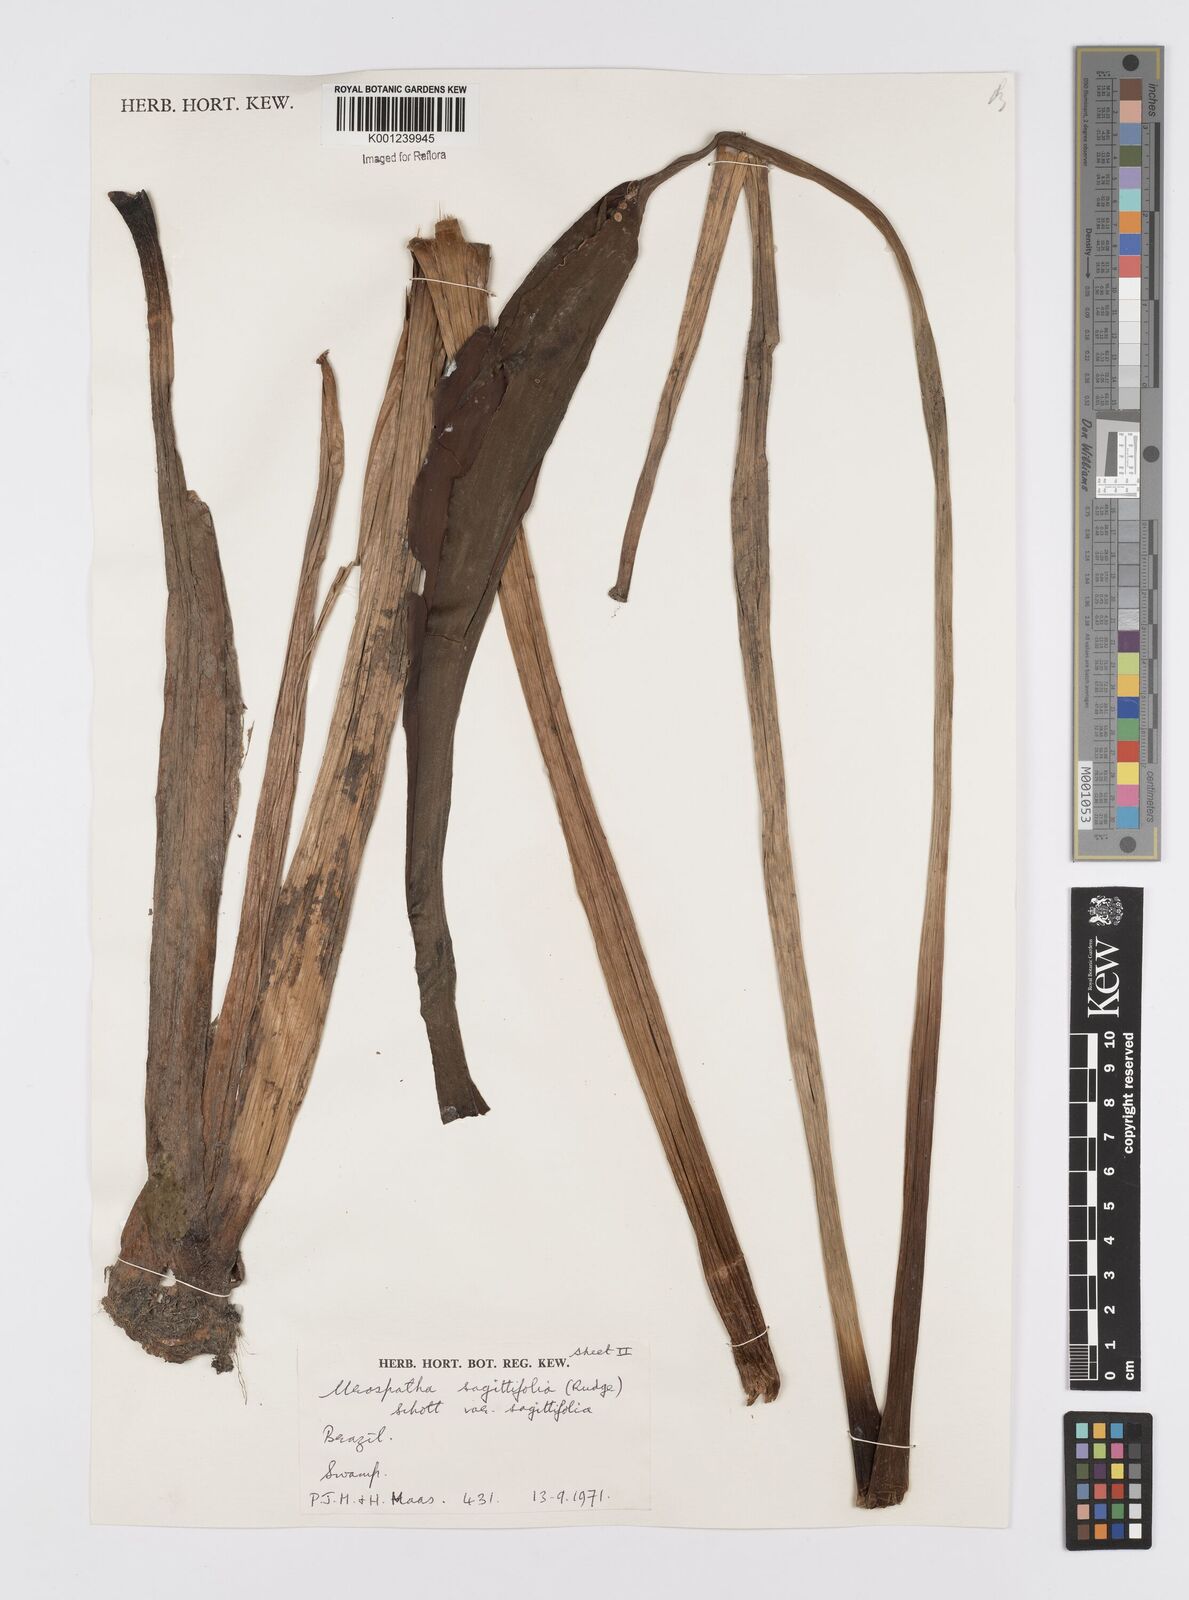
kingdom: Plantae
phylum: Tracheophyta
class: Liliopsida
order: Alismatales
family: Araceae
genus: Urospatha
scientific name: Urospatha sagittifolia
